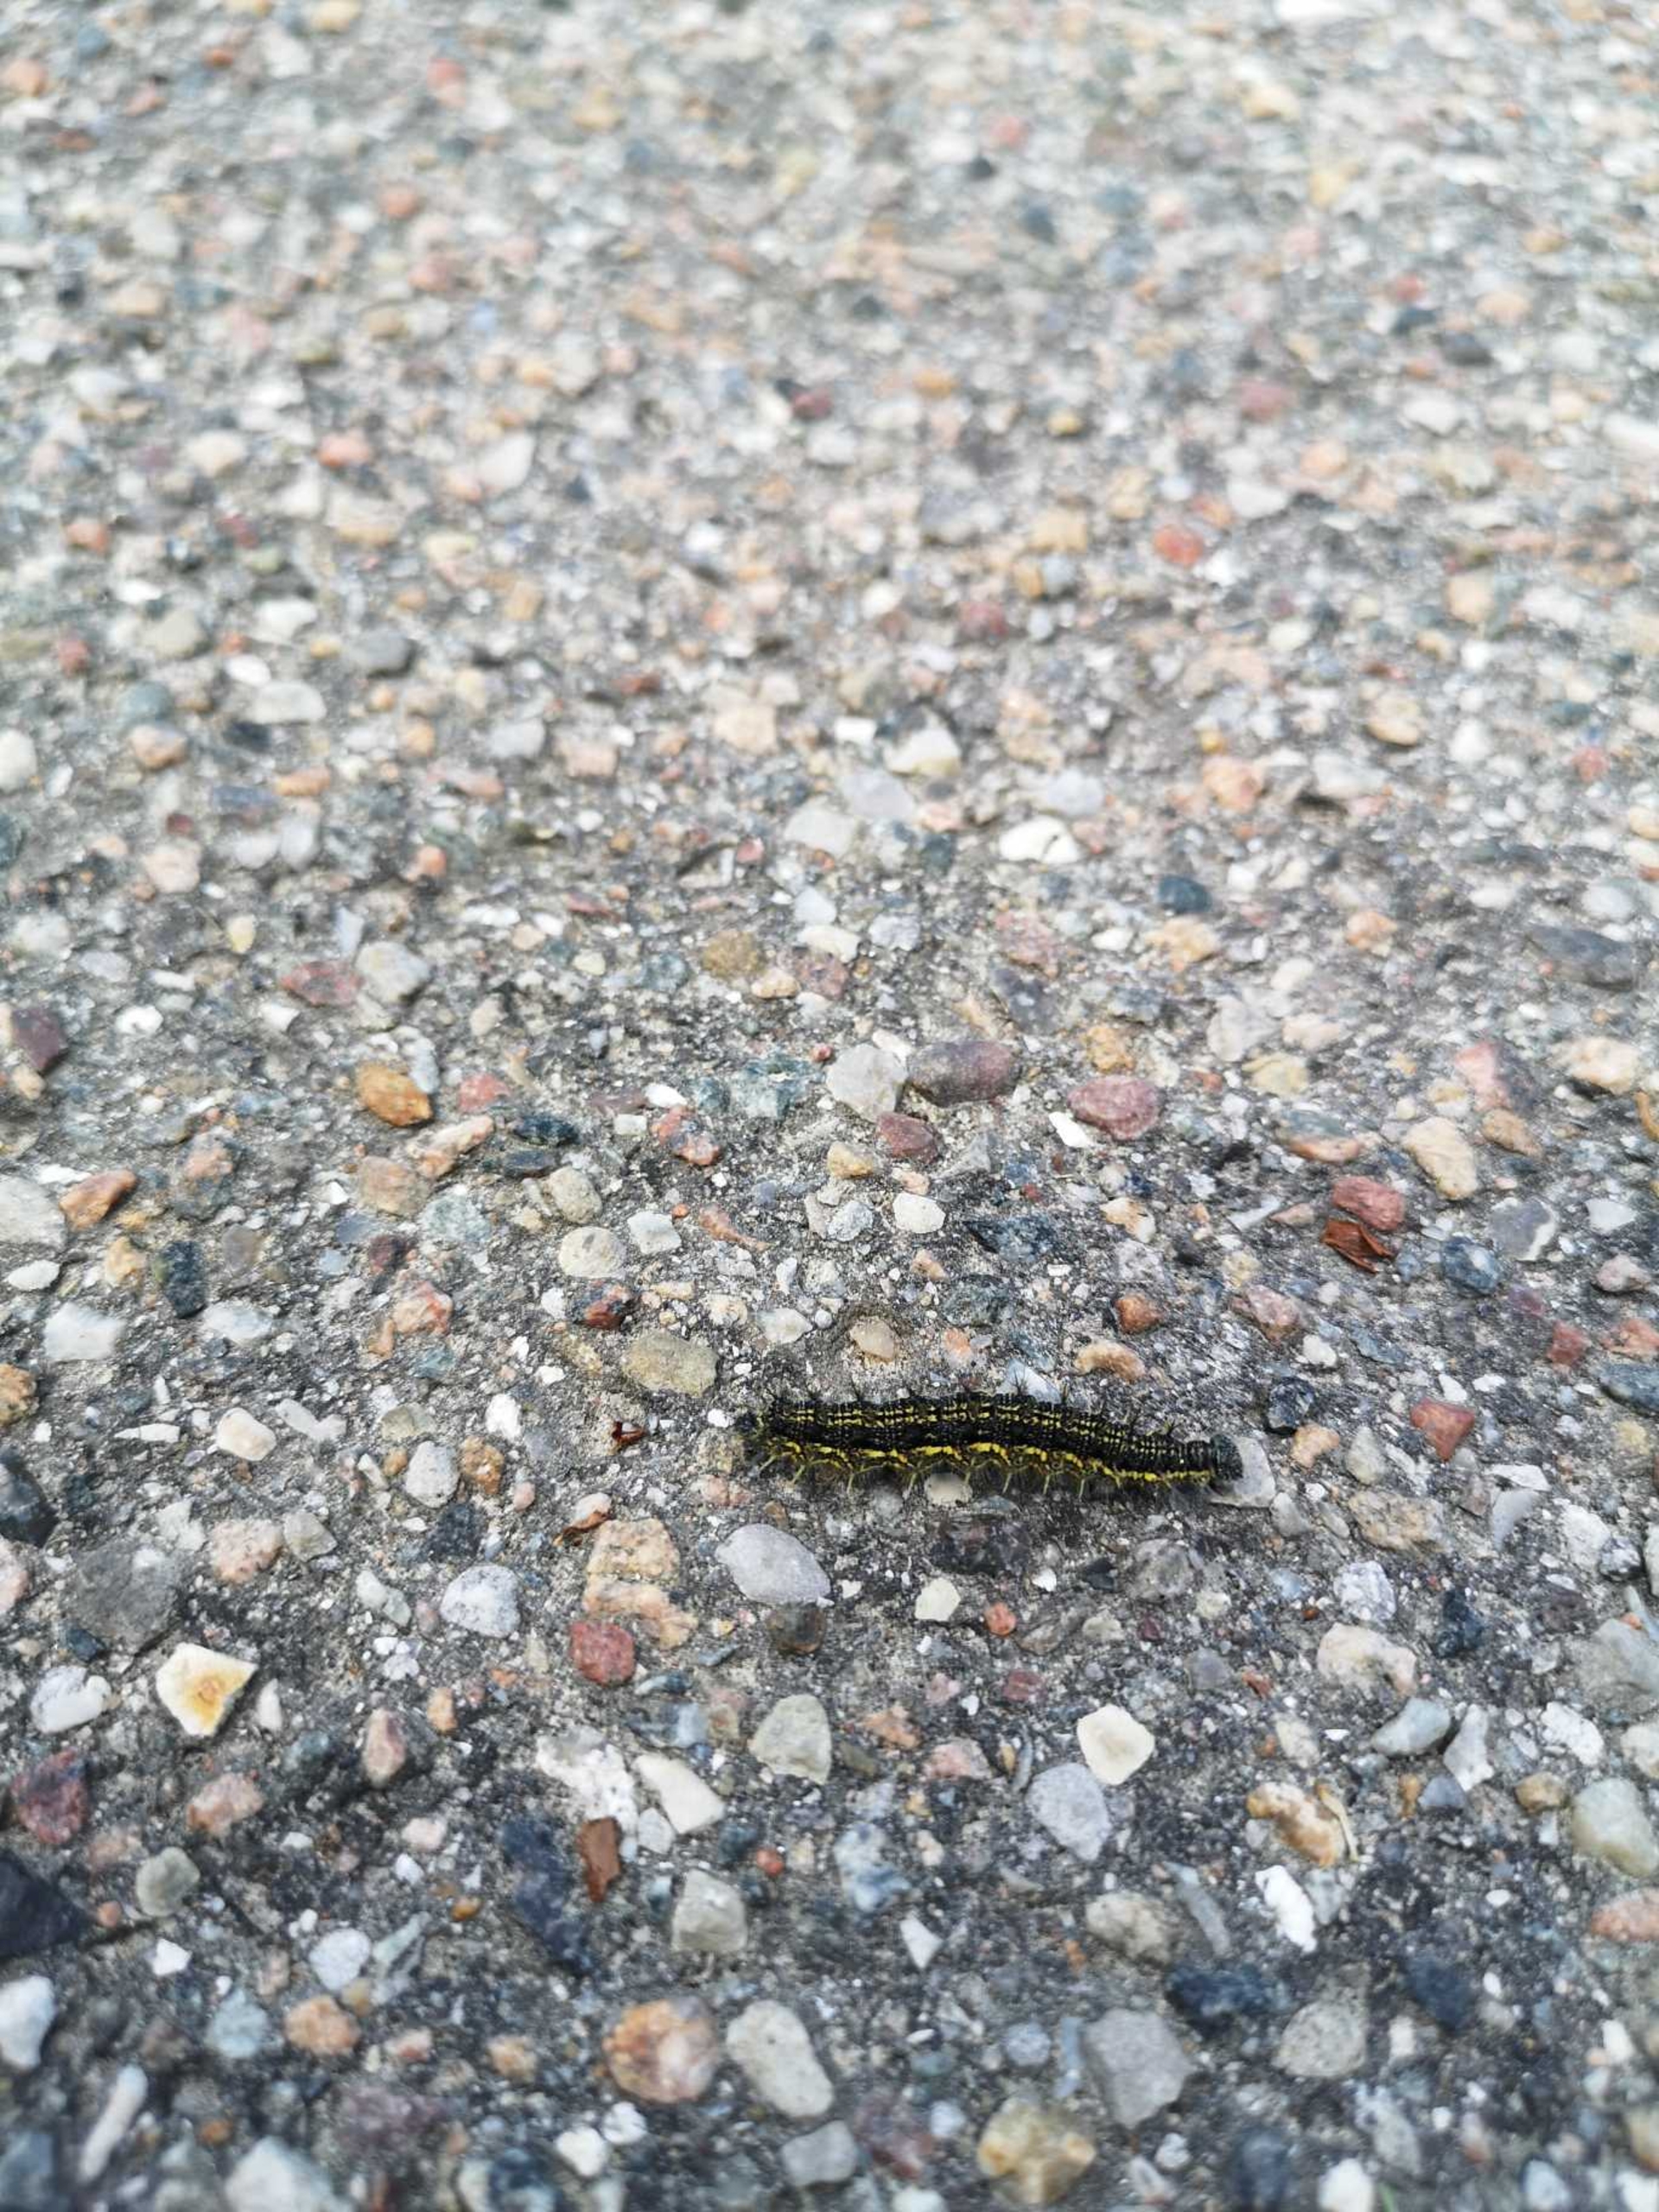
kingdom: Animalia
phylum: Arthropoda
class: Insecta
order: Lepidoptera
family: Nymphalidae
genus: Aglais
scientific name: Aglais urticae
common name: Nældens takvinge
